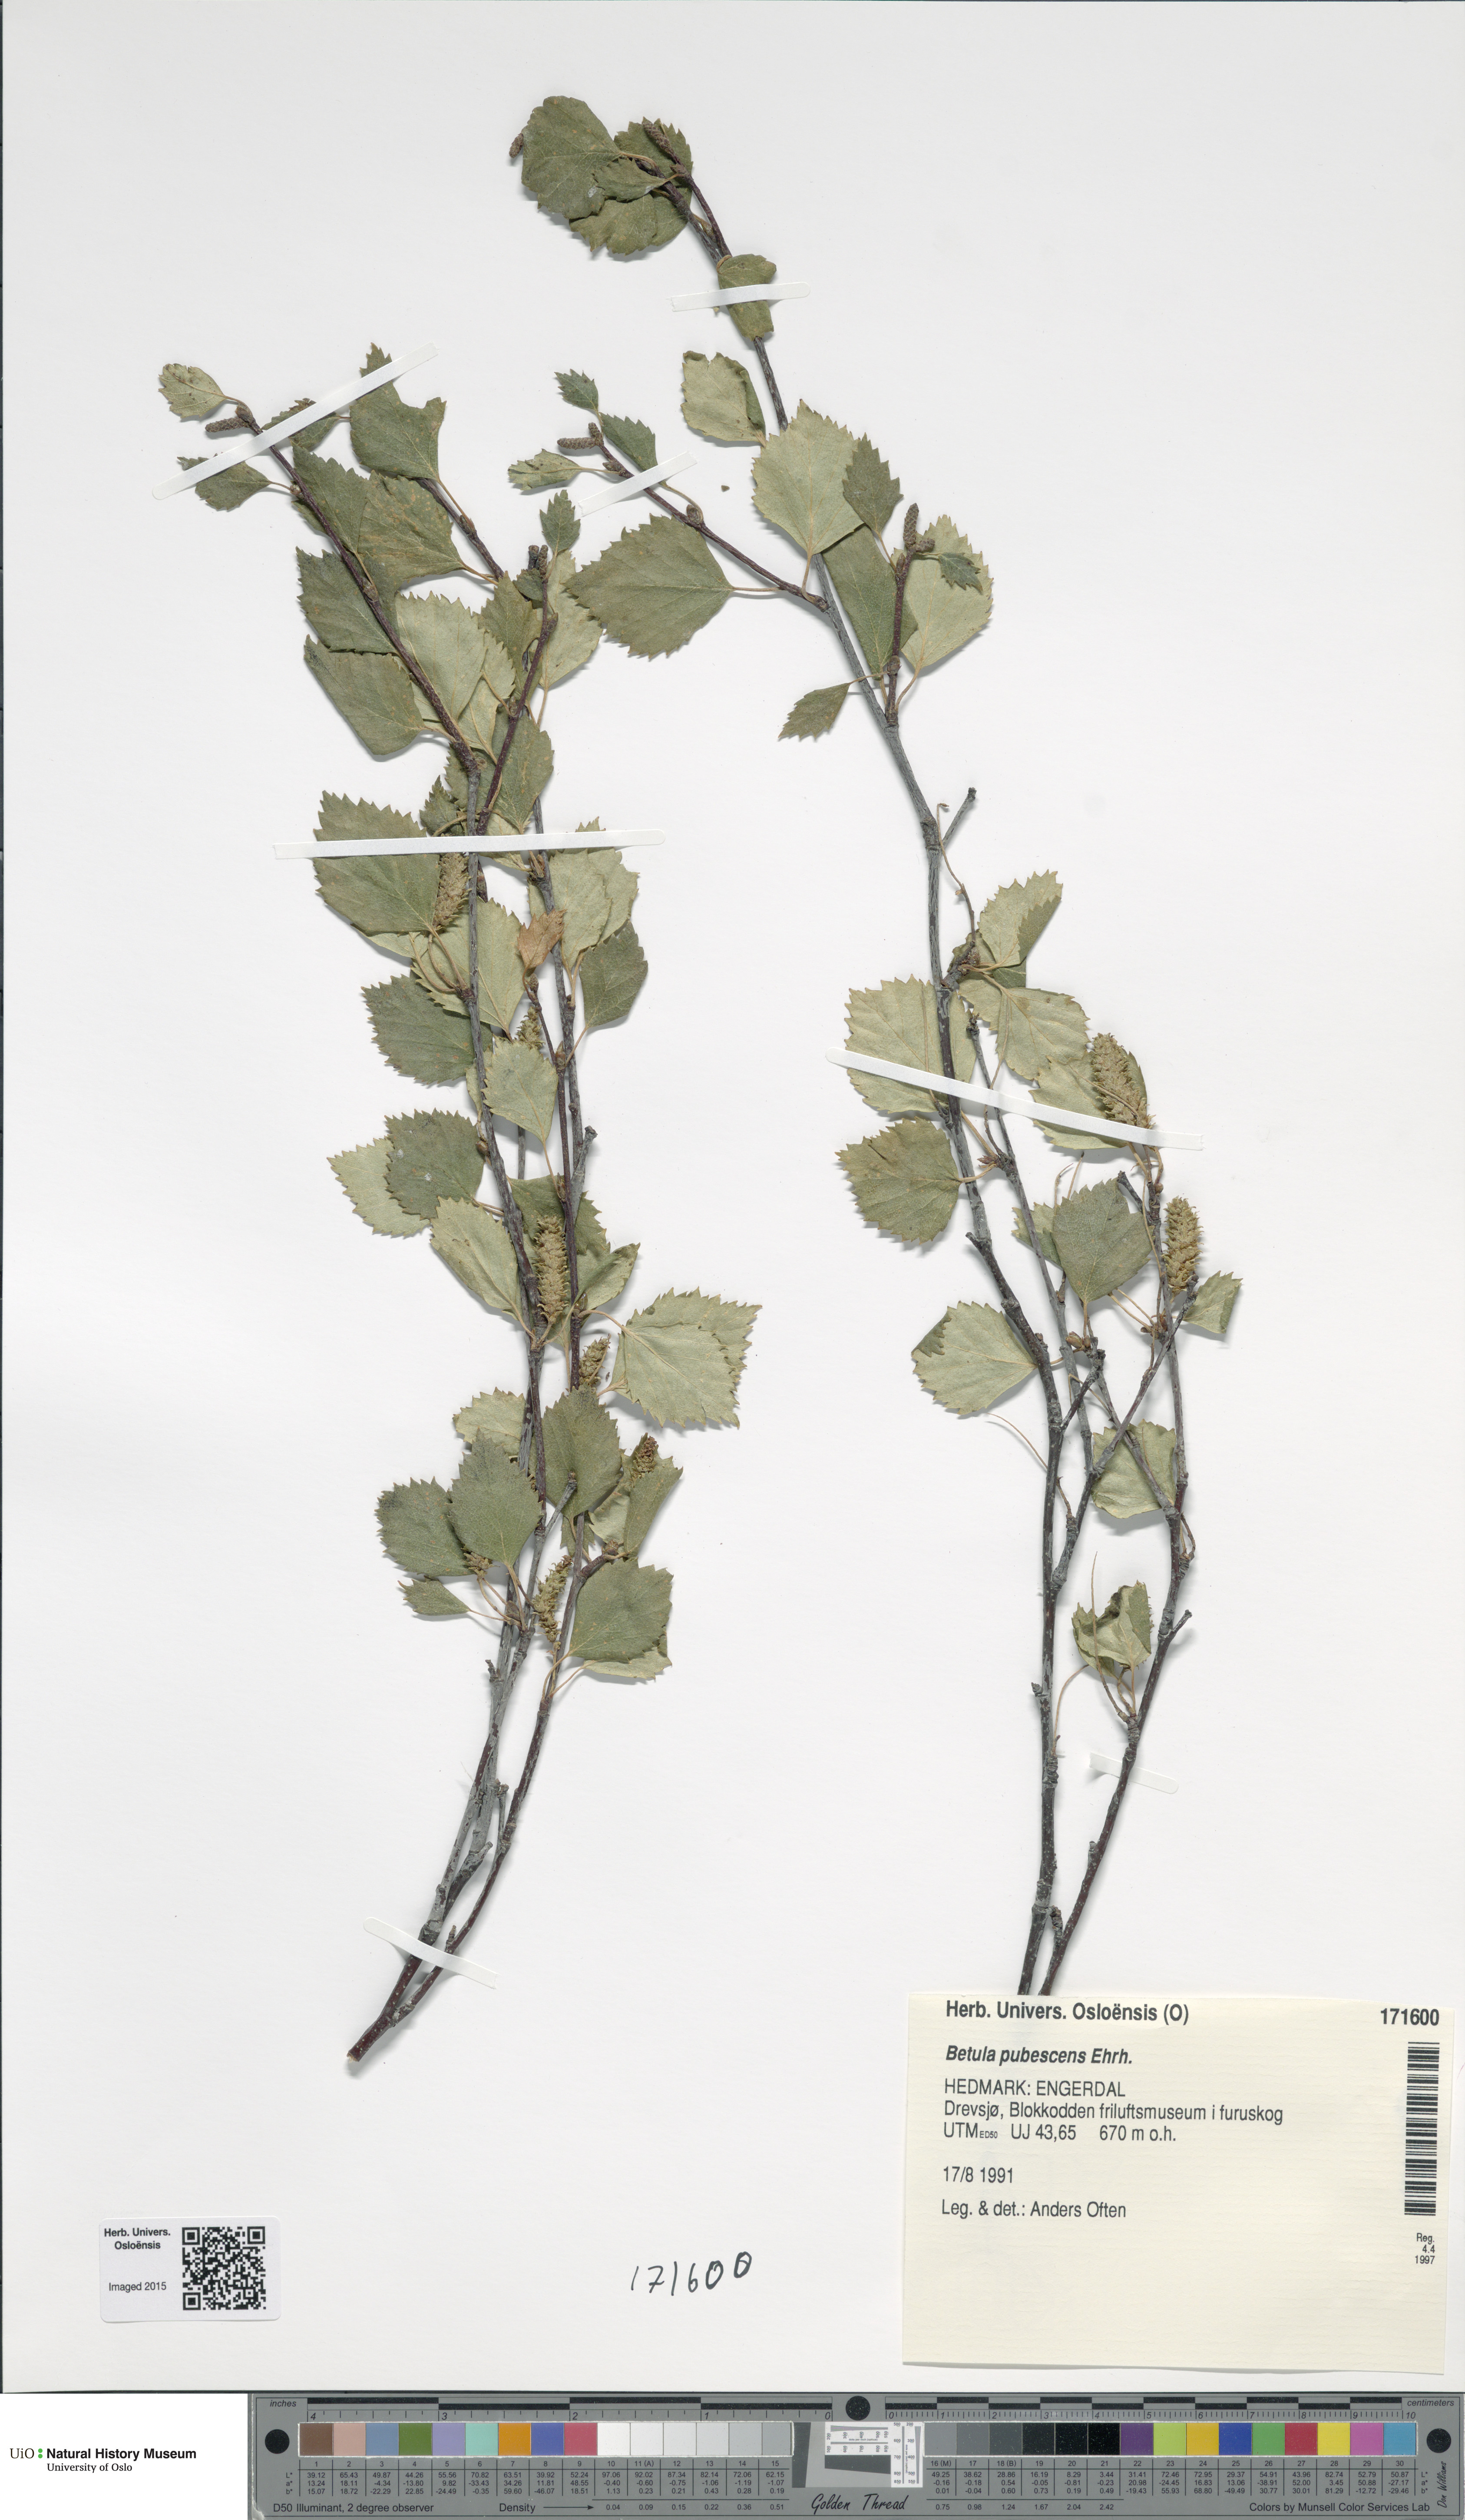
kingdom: Plantae
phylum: Tracheophyta
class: Magnoliopsida
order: Fagales
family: Betulaceae
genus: Betula
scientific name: Betula pubescens
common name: Downy birch
